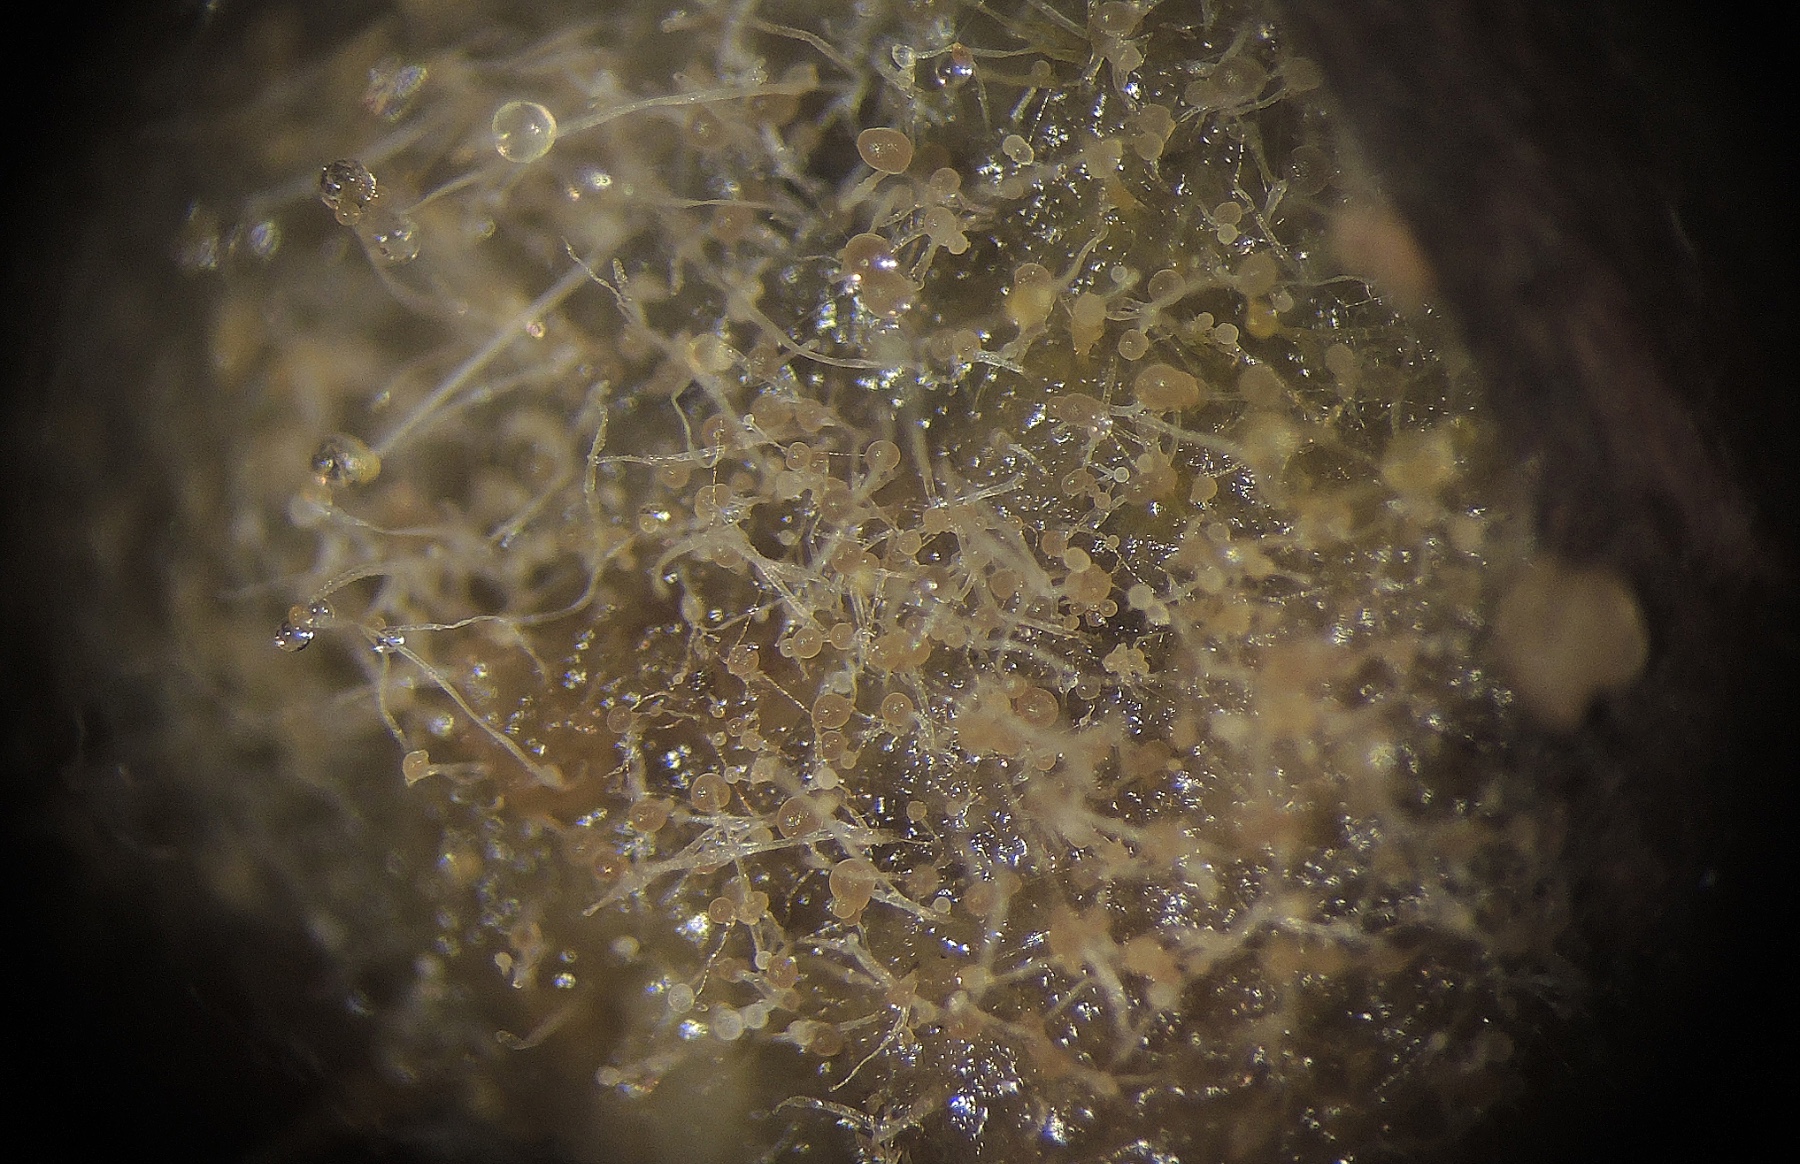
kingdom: Fungi
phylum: Mucoromycota
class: Mucoromycetes
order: Mucorales
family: Mucoraceae
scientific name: Mucoraceae
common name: mugfamilien
